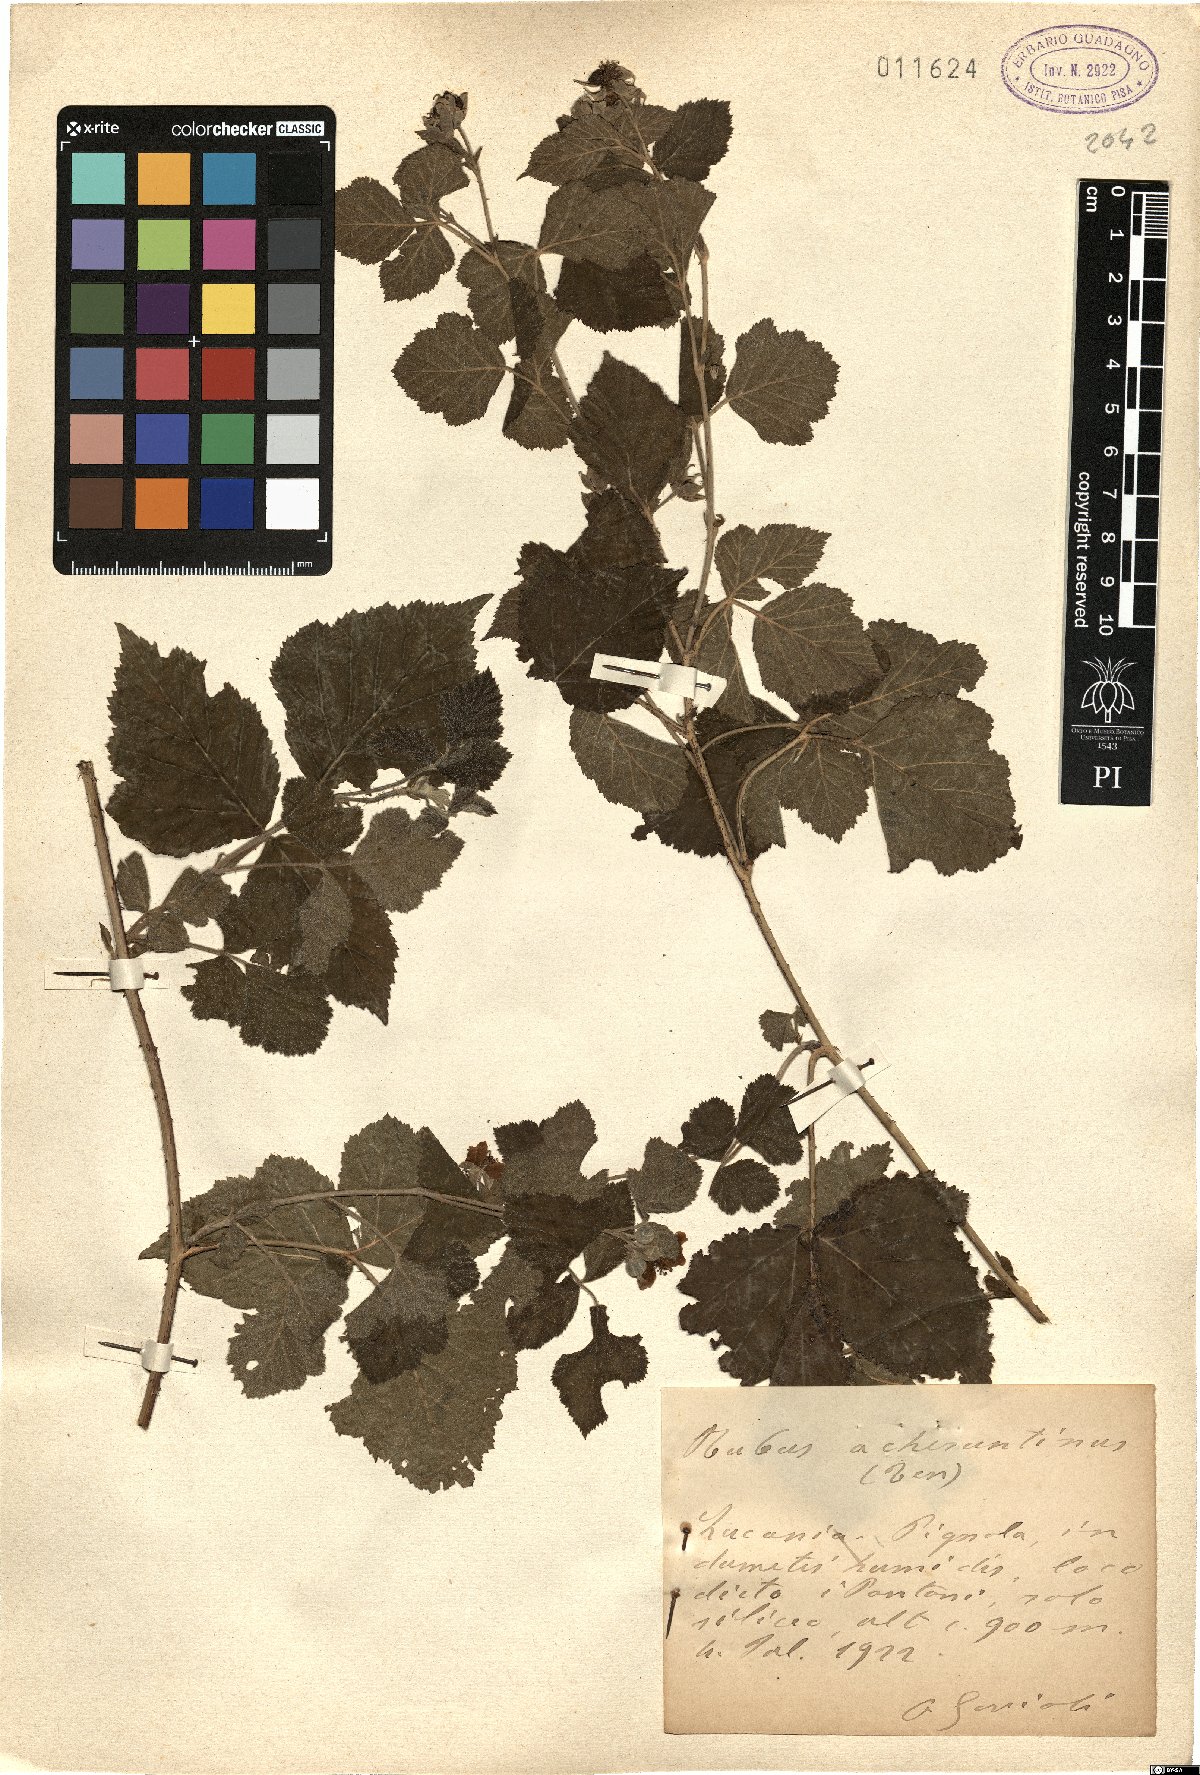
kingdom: Plantae
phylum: Tracheophyta
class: Magnoliopsida
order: Rosales
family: Rosaceae
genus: Rubus
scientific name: Rubus acheruntinus
